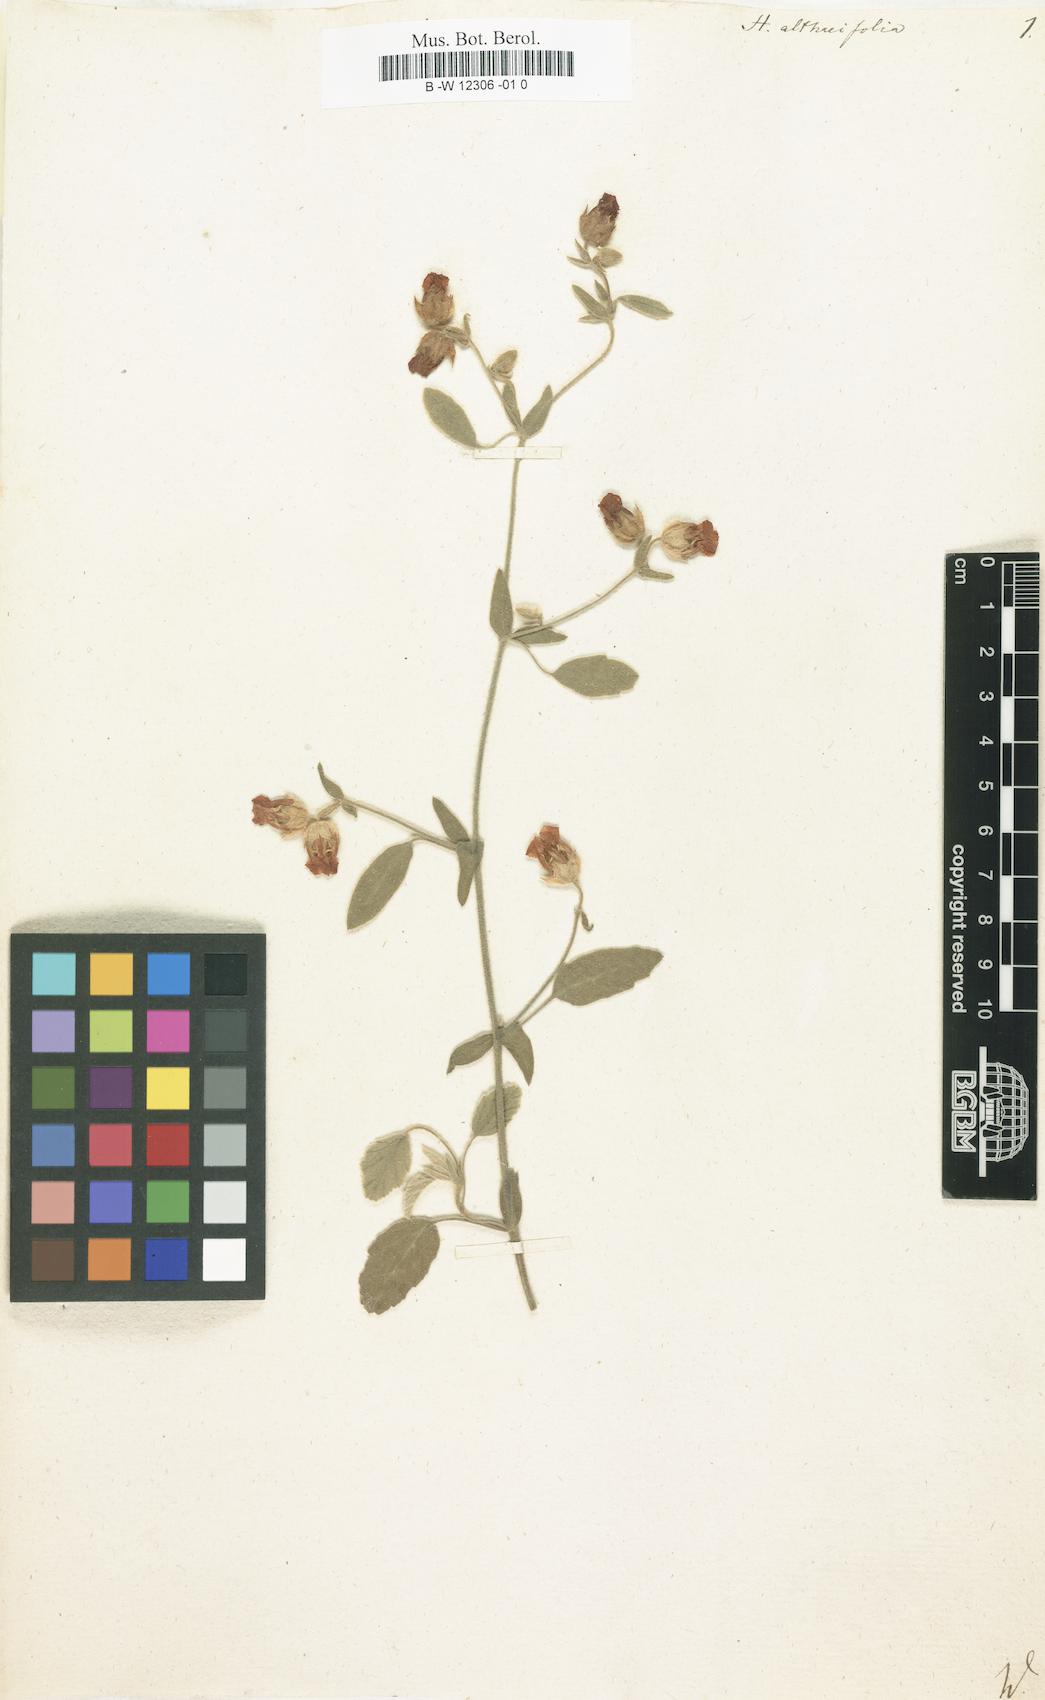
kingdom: Plantae
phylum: Tracheophyta
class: Magnoliopsida
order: Malvales
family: Malvaceae
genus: Hermannia
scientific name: Hermannia althaeifolia
